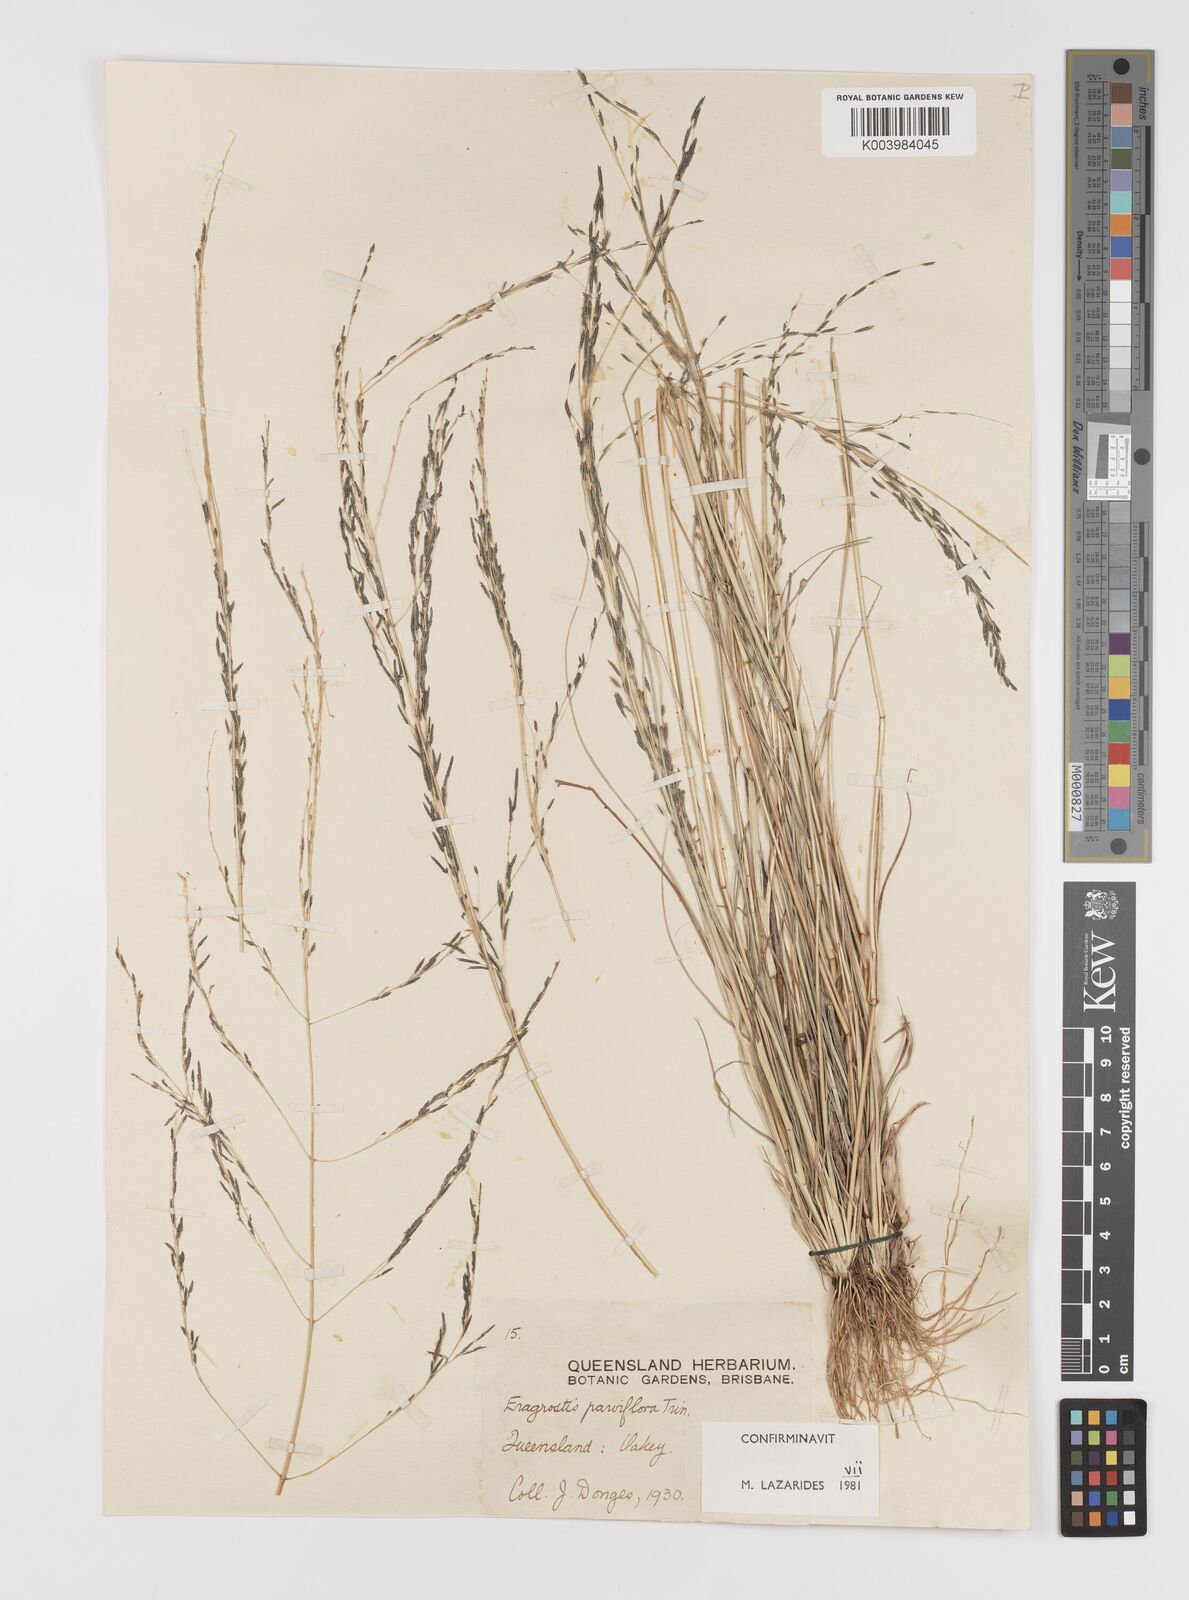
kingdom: Plantae
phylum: Tracheophyta
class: Liliopsida
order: Poales
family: Poaceae
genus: Eragrostis
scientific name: Eragrostis parviflora
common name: Weeping love-grass
